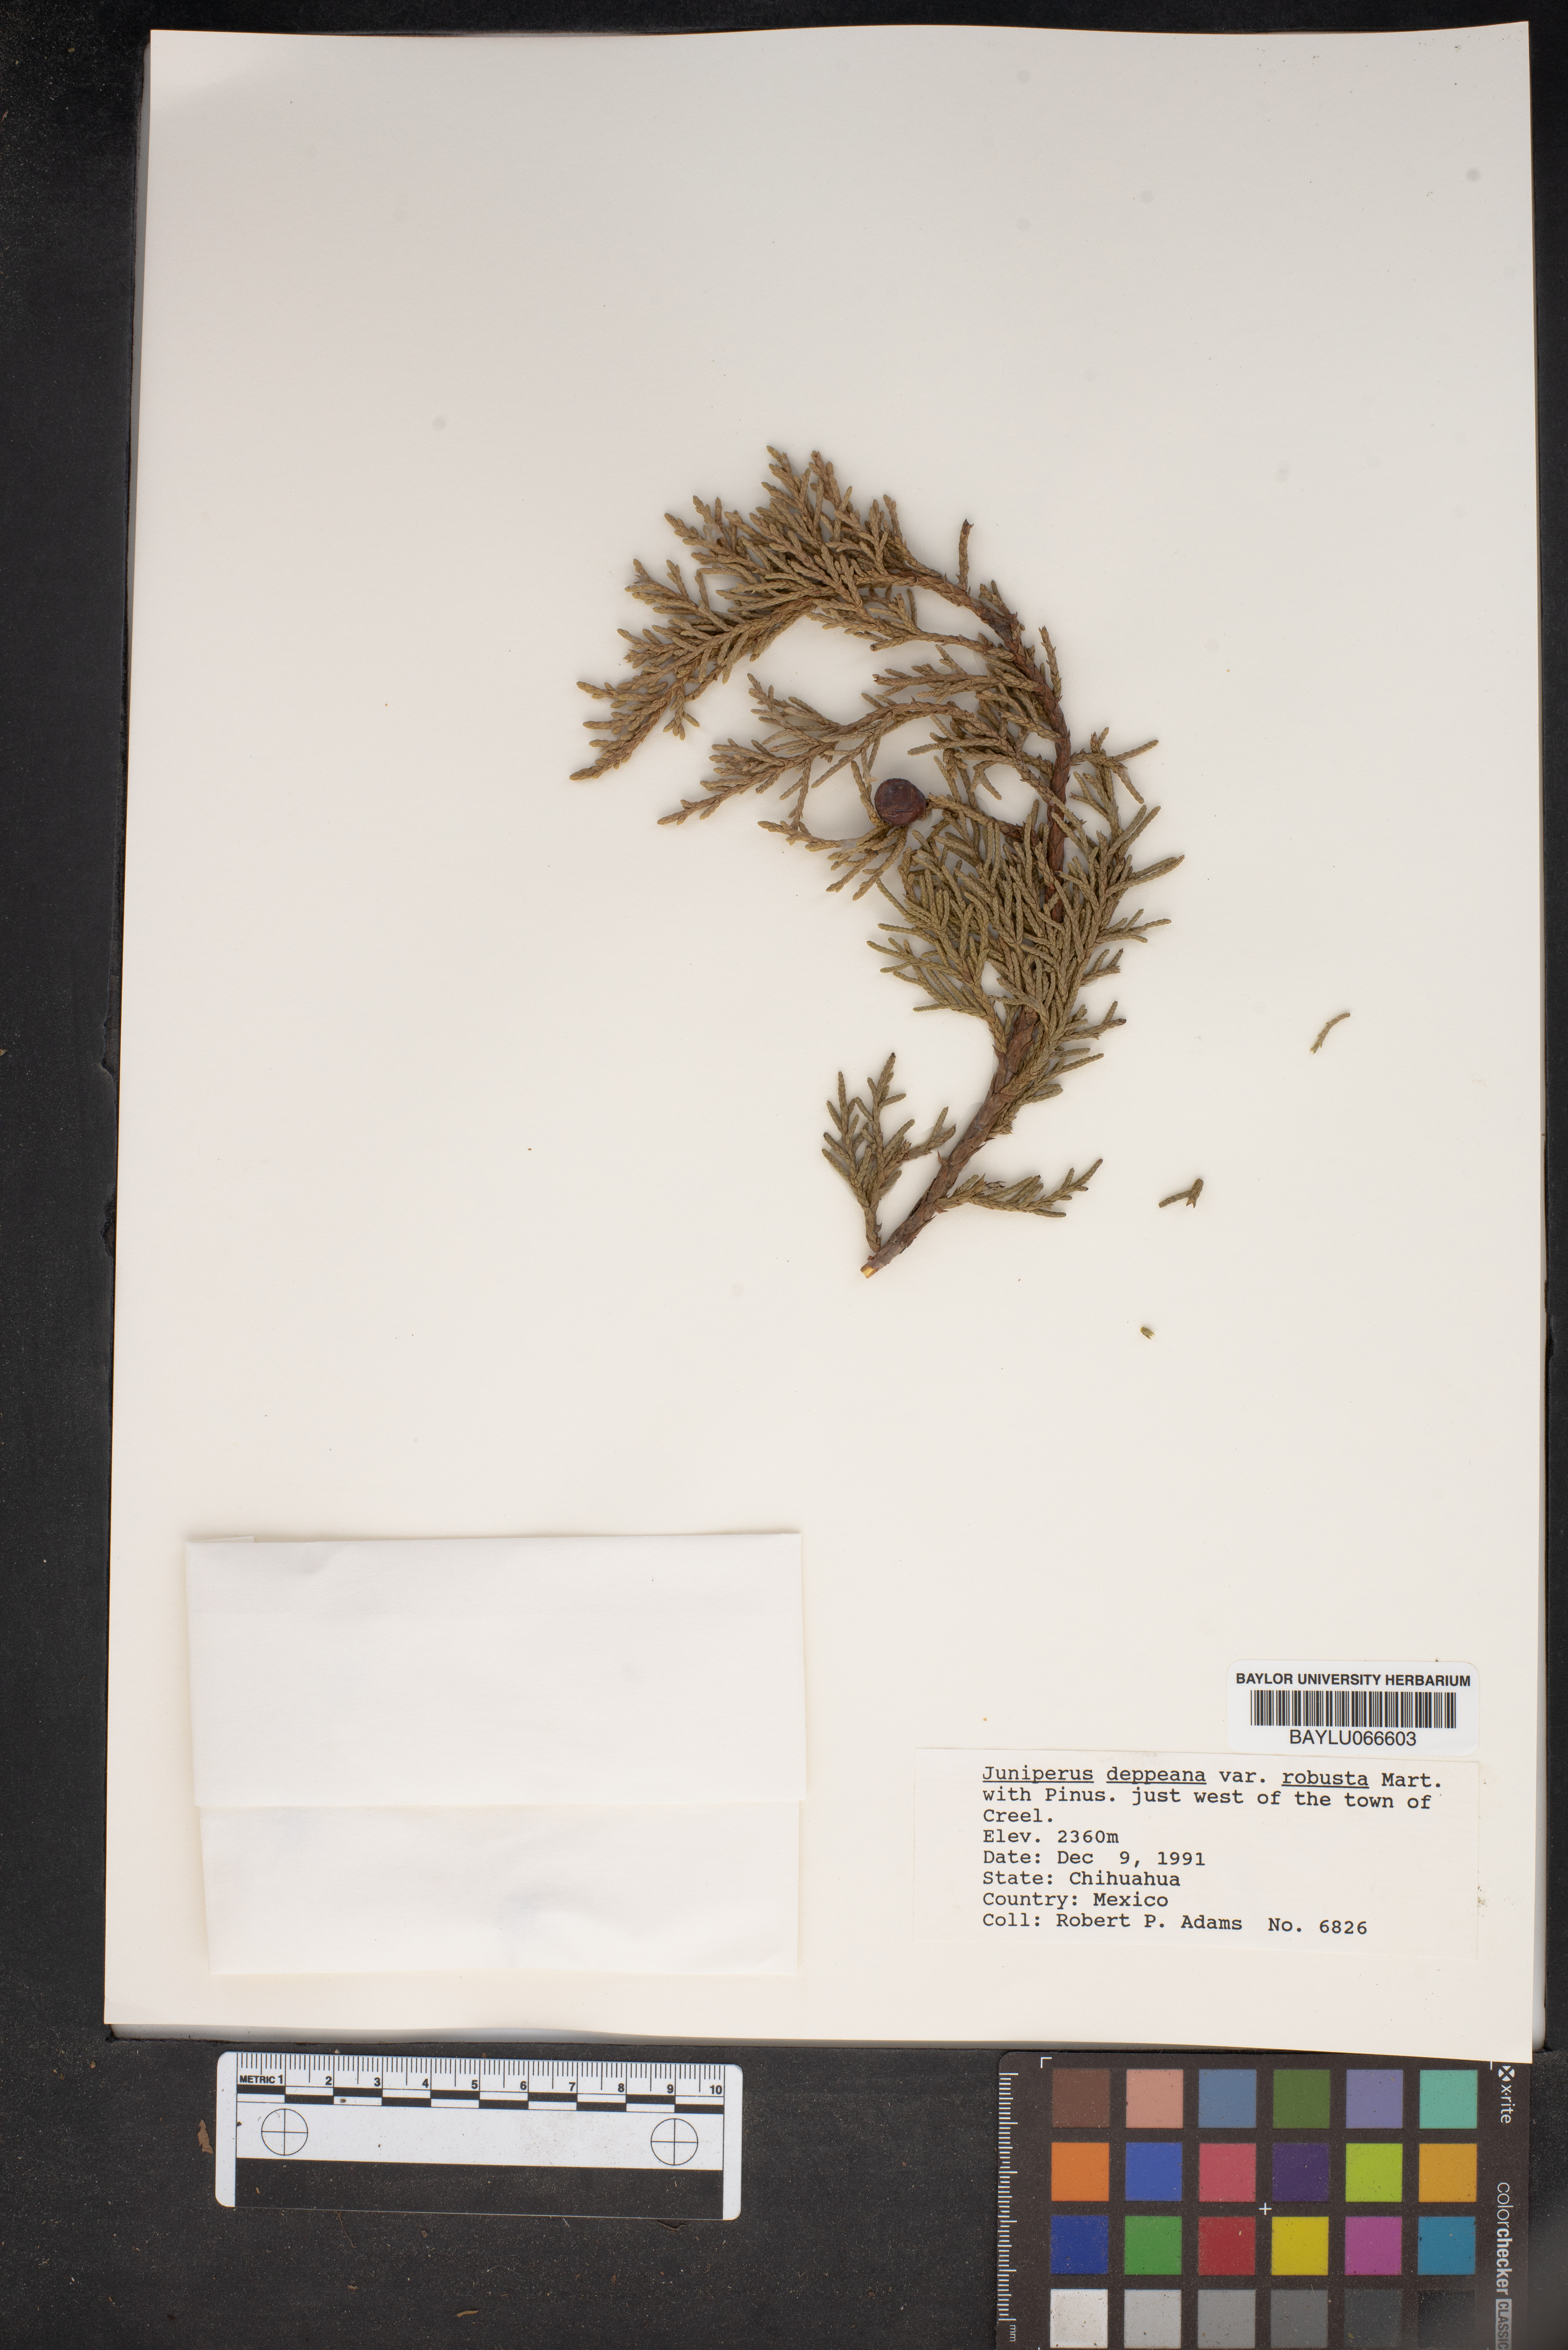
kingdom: Plantae
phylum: Tracheophyta
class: Pinopsida
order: Pinales
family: Cupressaceae
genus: Juniperus
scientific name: Juniperus deppeana
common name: Alligator juniper
